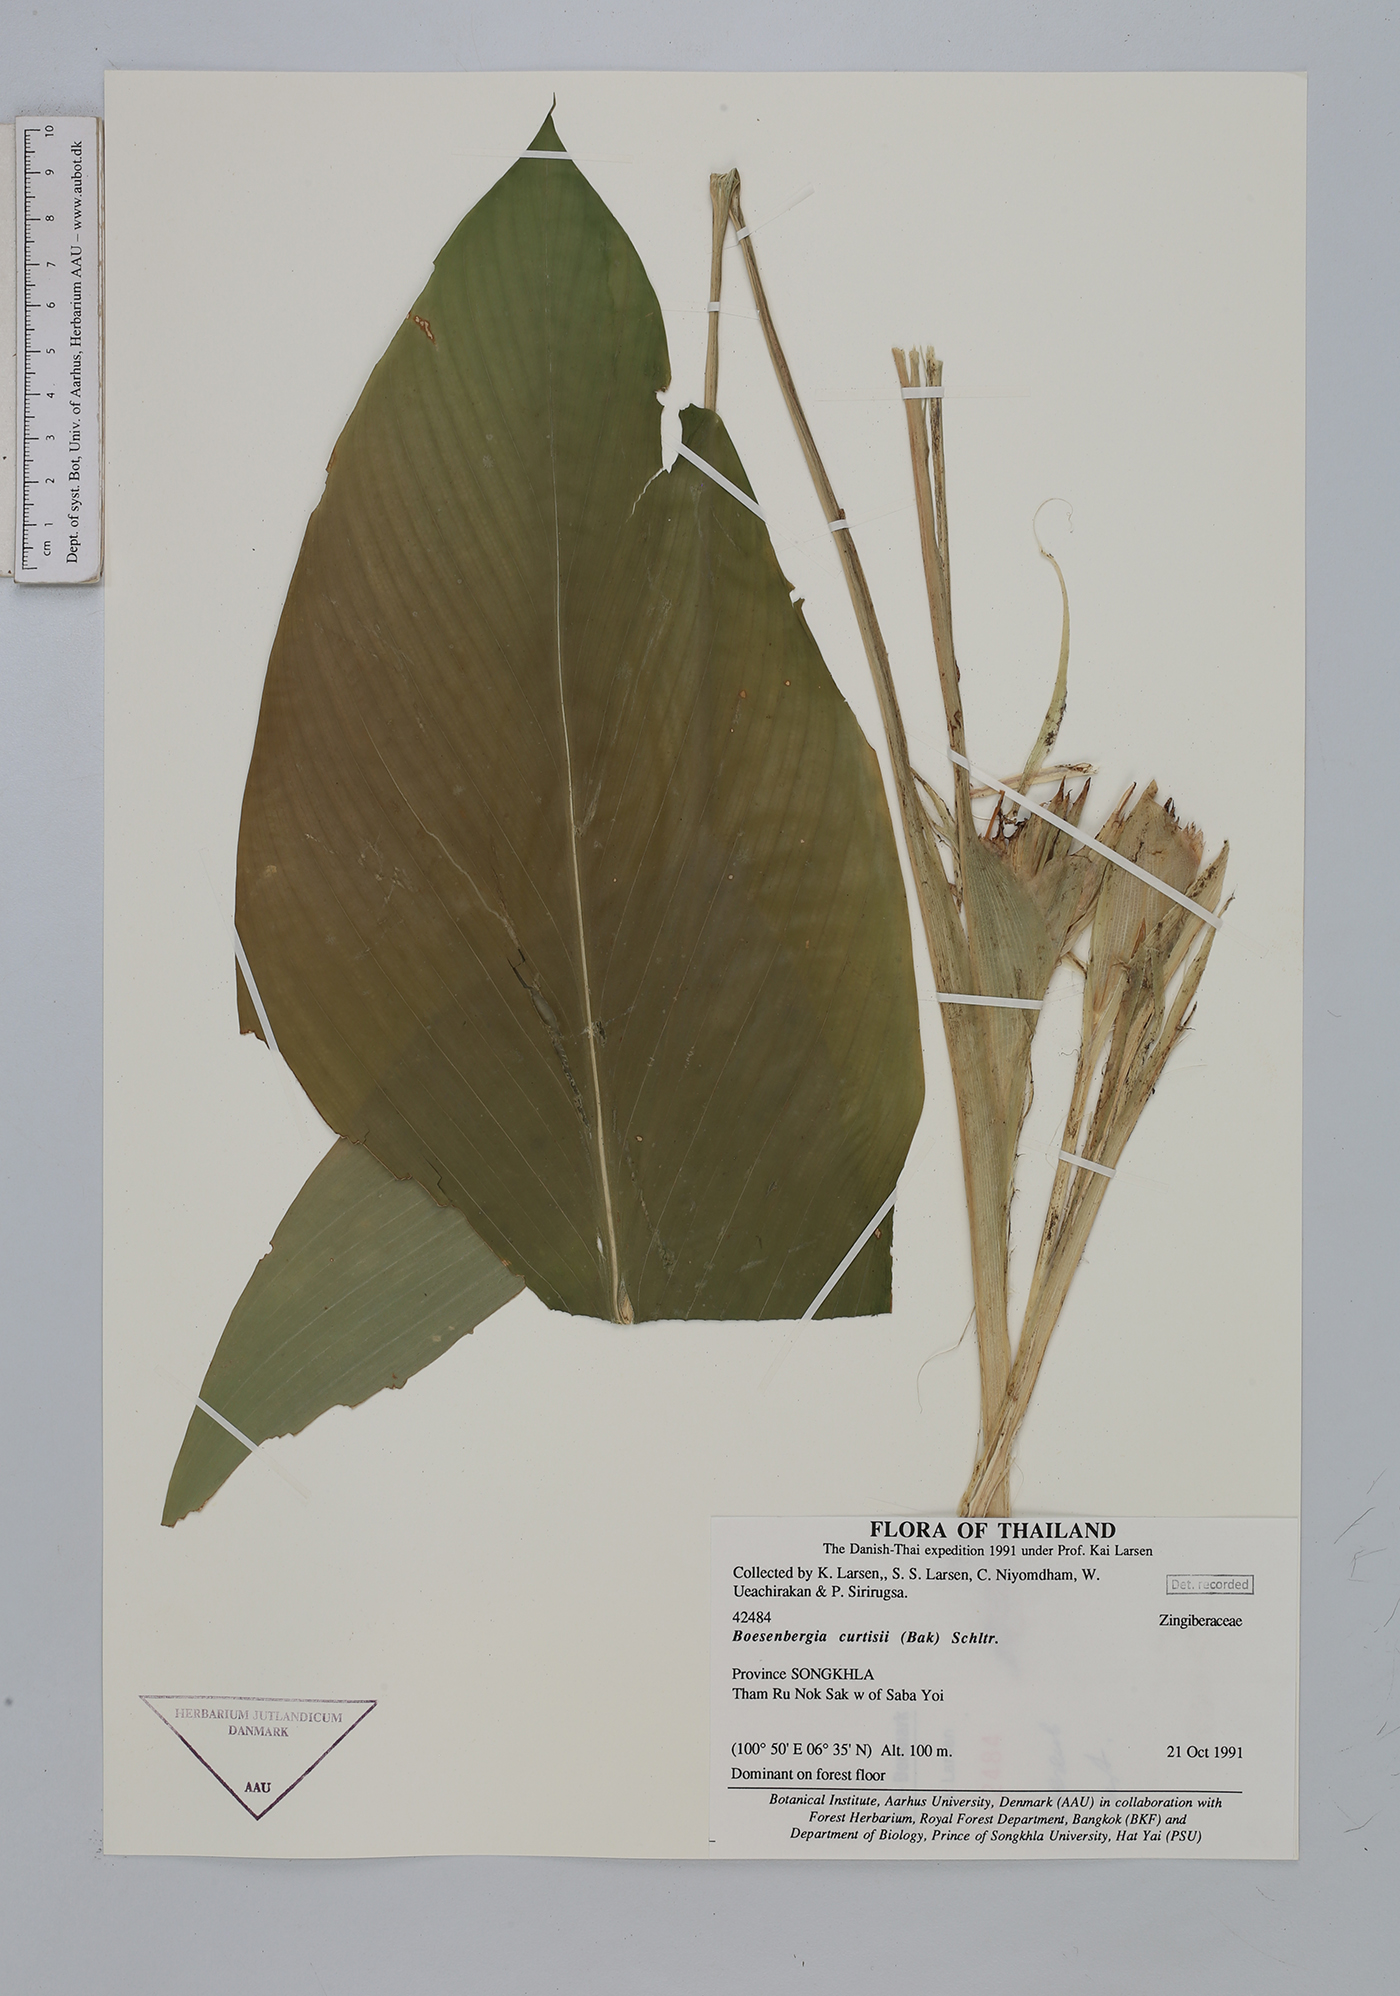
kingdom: Plantae
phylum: Tracheophyta
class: Liliopsida
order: Zingiberales
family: Zingiberaceae
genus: Boesenbergia
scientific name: Boesenbergia curtisii
